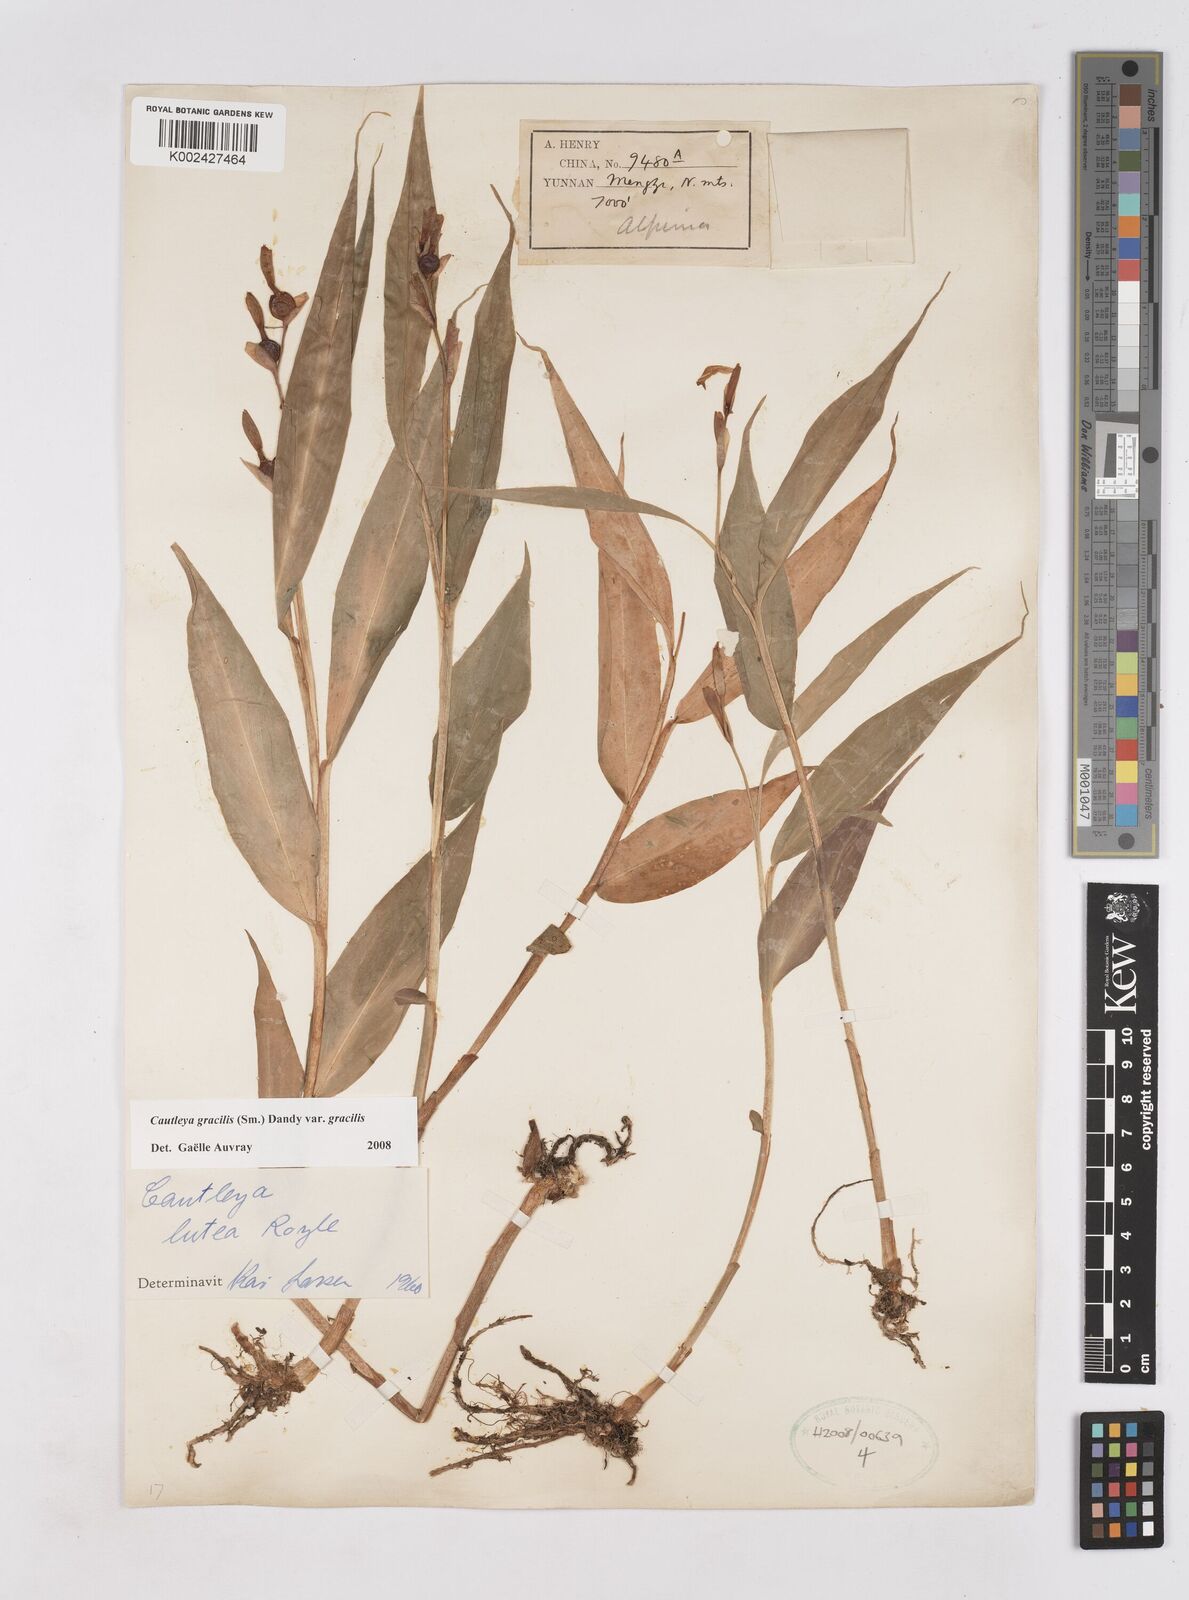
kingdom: Plantae
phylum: Tracheophyta
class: Liliopsida
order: Zingiberales
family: Zingiberaceae
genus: Cautleya
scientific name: Cautleya gracilis
